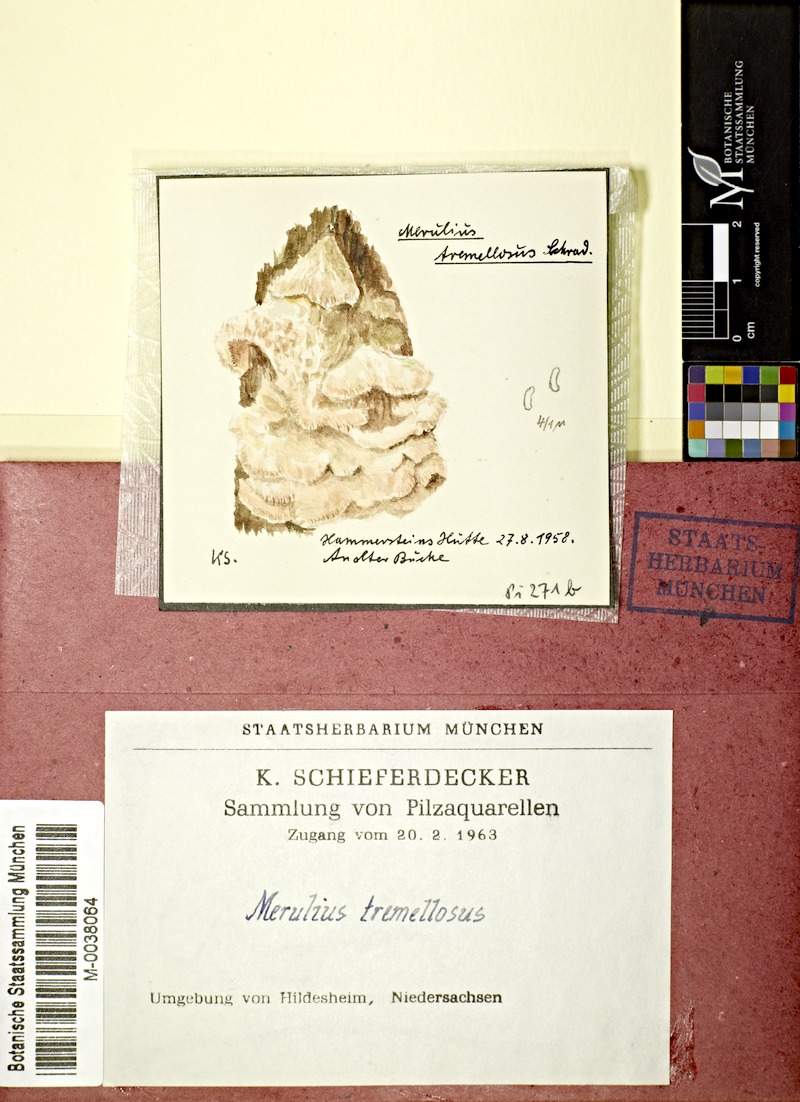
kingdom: Plantae
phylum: Tracheophyta
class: Magnoliopsida
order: Fagales
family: Fagaceae
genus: Fagus
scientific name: Fagus
